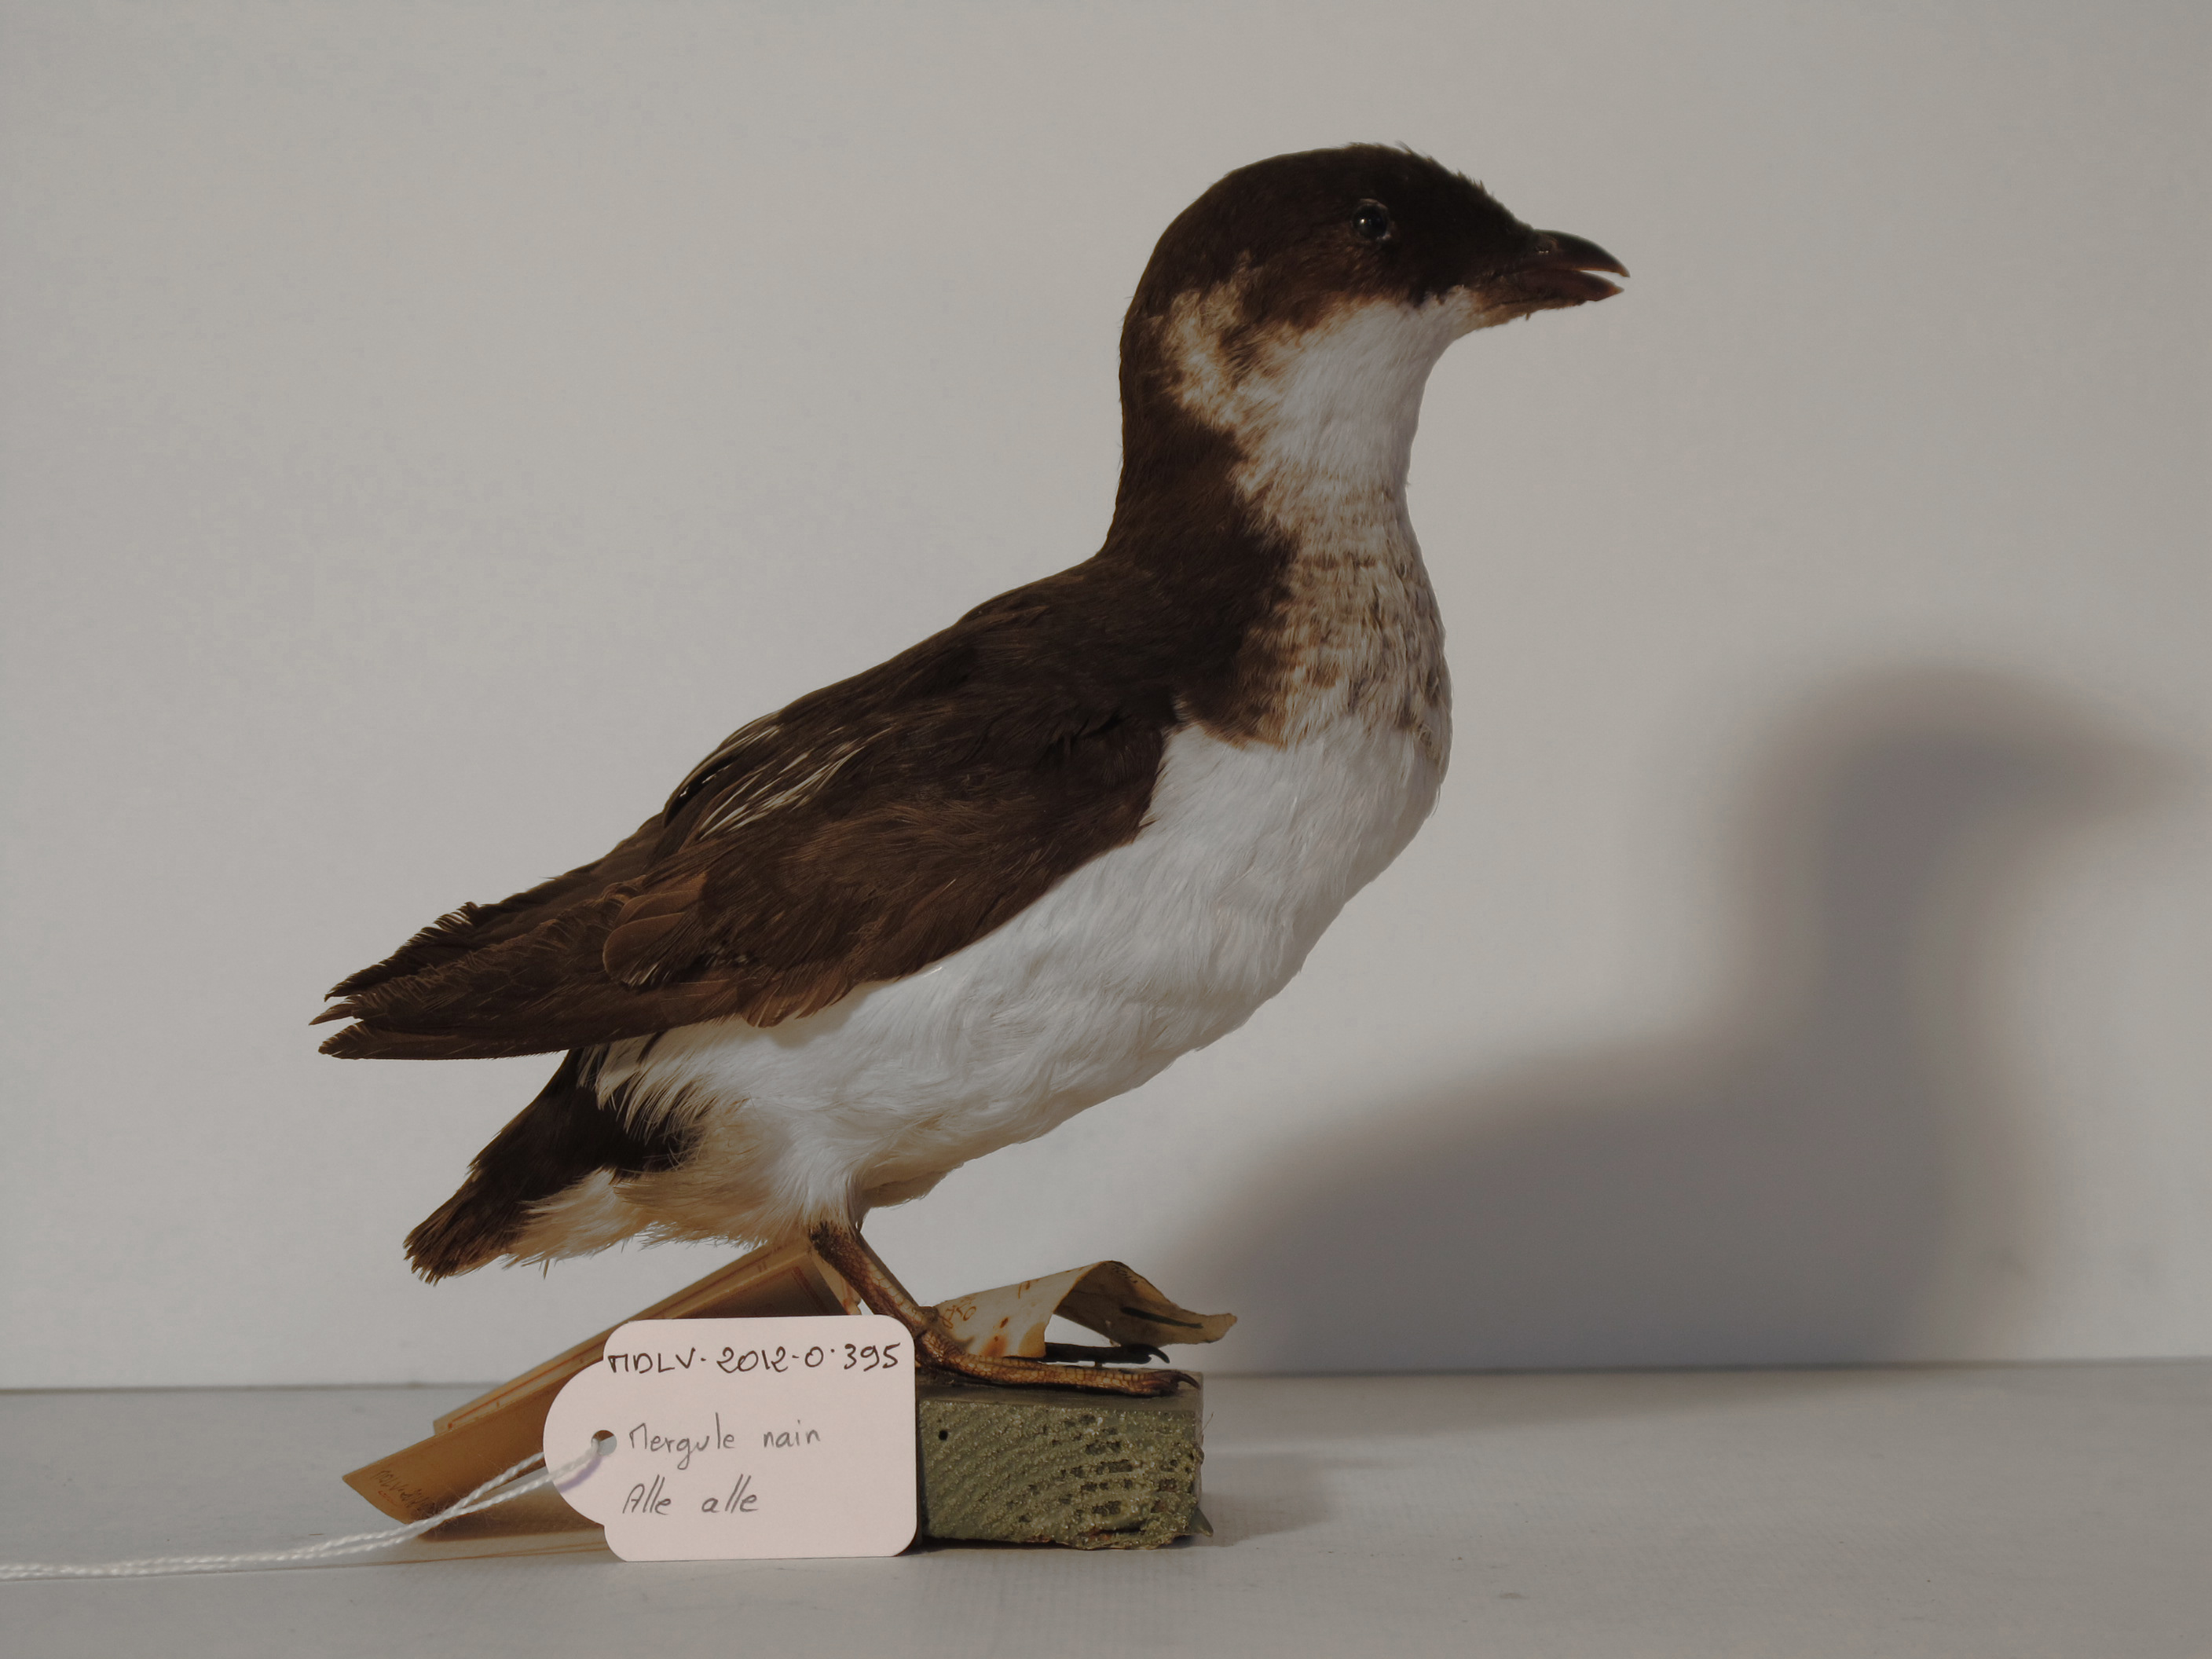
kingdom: Animalia
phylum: Chordata
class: Aves
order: Charadriiformes
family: Alcidae
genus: Alle
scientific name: Alle alle
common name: Dovekie
